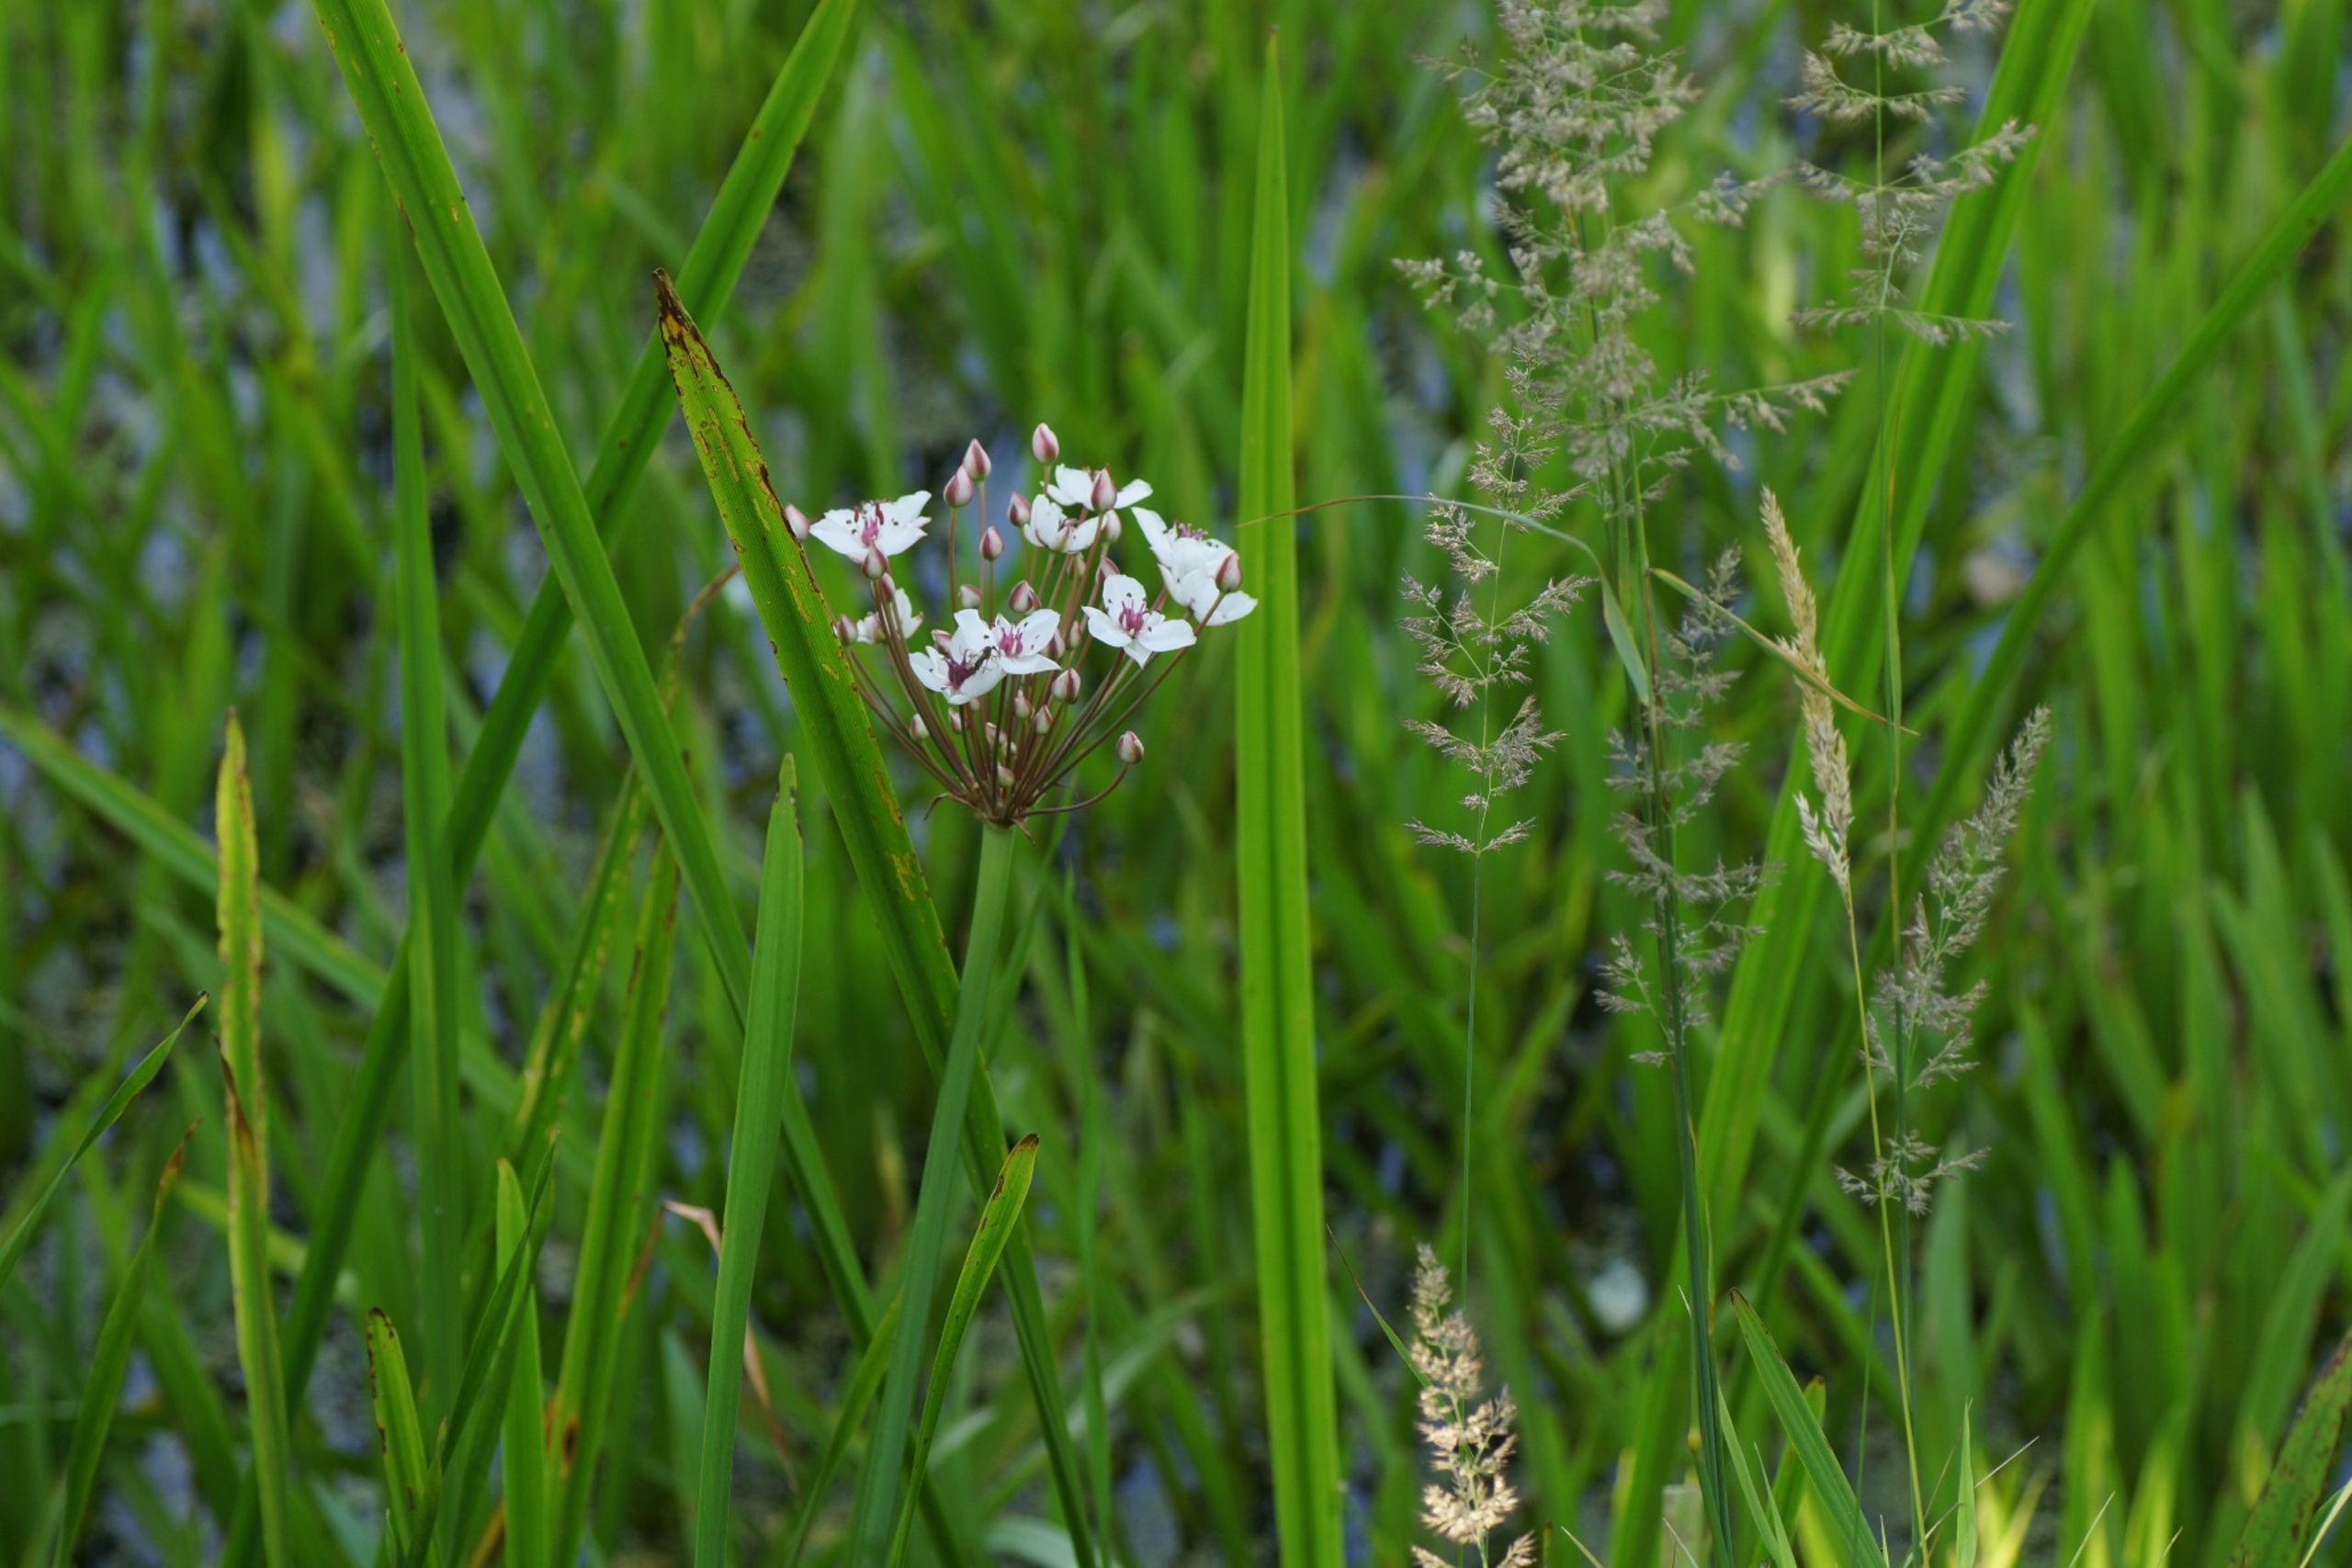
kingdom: Plantae
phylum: Tracheophyta
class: Liliopsida
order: Alismatales
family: Butomaceae
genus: Butomus
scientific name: Butomus umbellatus
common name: Brudelys
